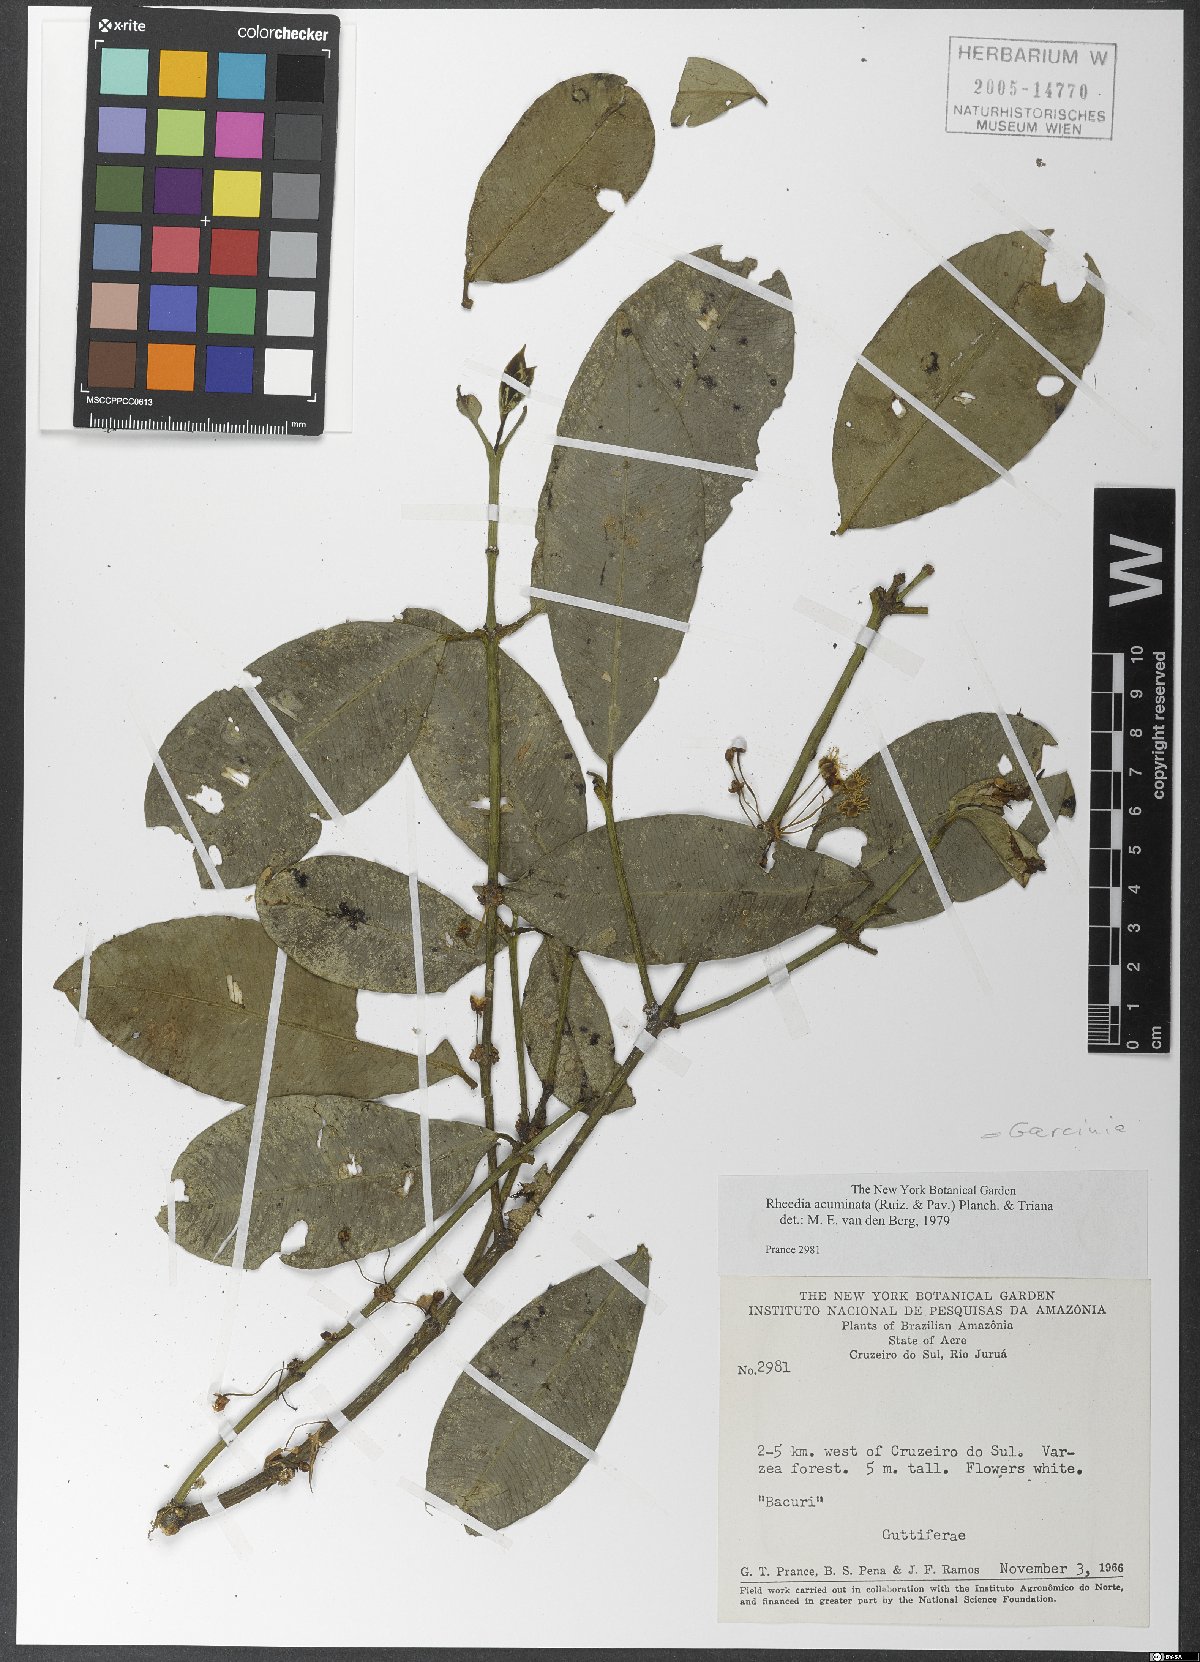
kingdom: Plantae
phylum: Tracheophyta
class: Magnoliopsida
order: Malpighiales
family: Clusiaceae
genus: Garcinia
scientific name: Garcinia ovalifolia
